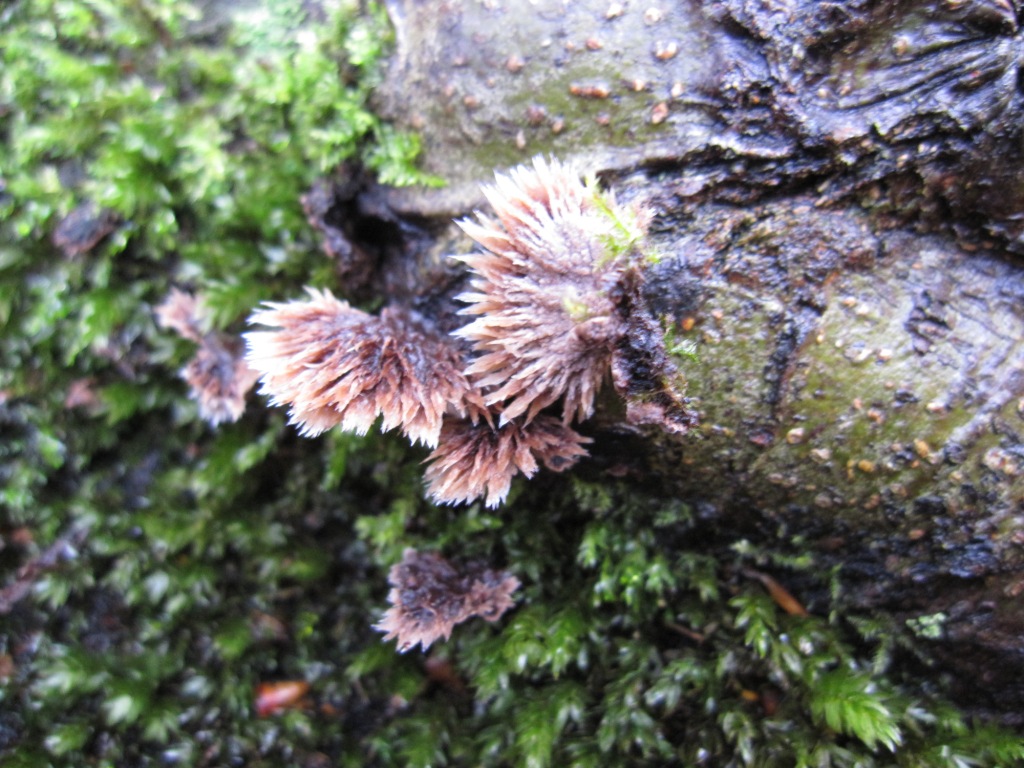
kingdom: Fungi
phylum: Basidiomycota
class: Agaricomycetes
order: Thelephorales
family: Thelephoraceae
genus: Thelephora
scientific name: Thelephora penicillata
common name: fladtrådt frynsesvamp
